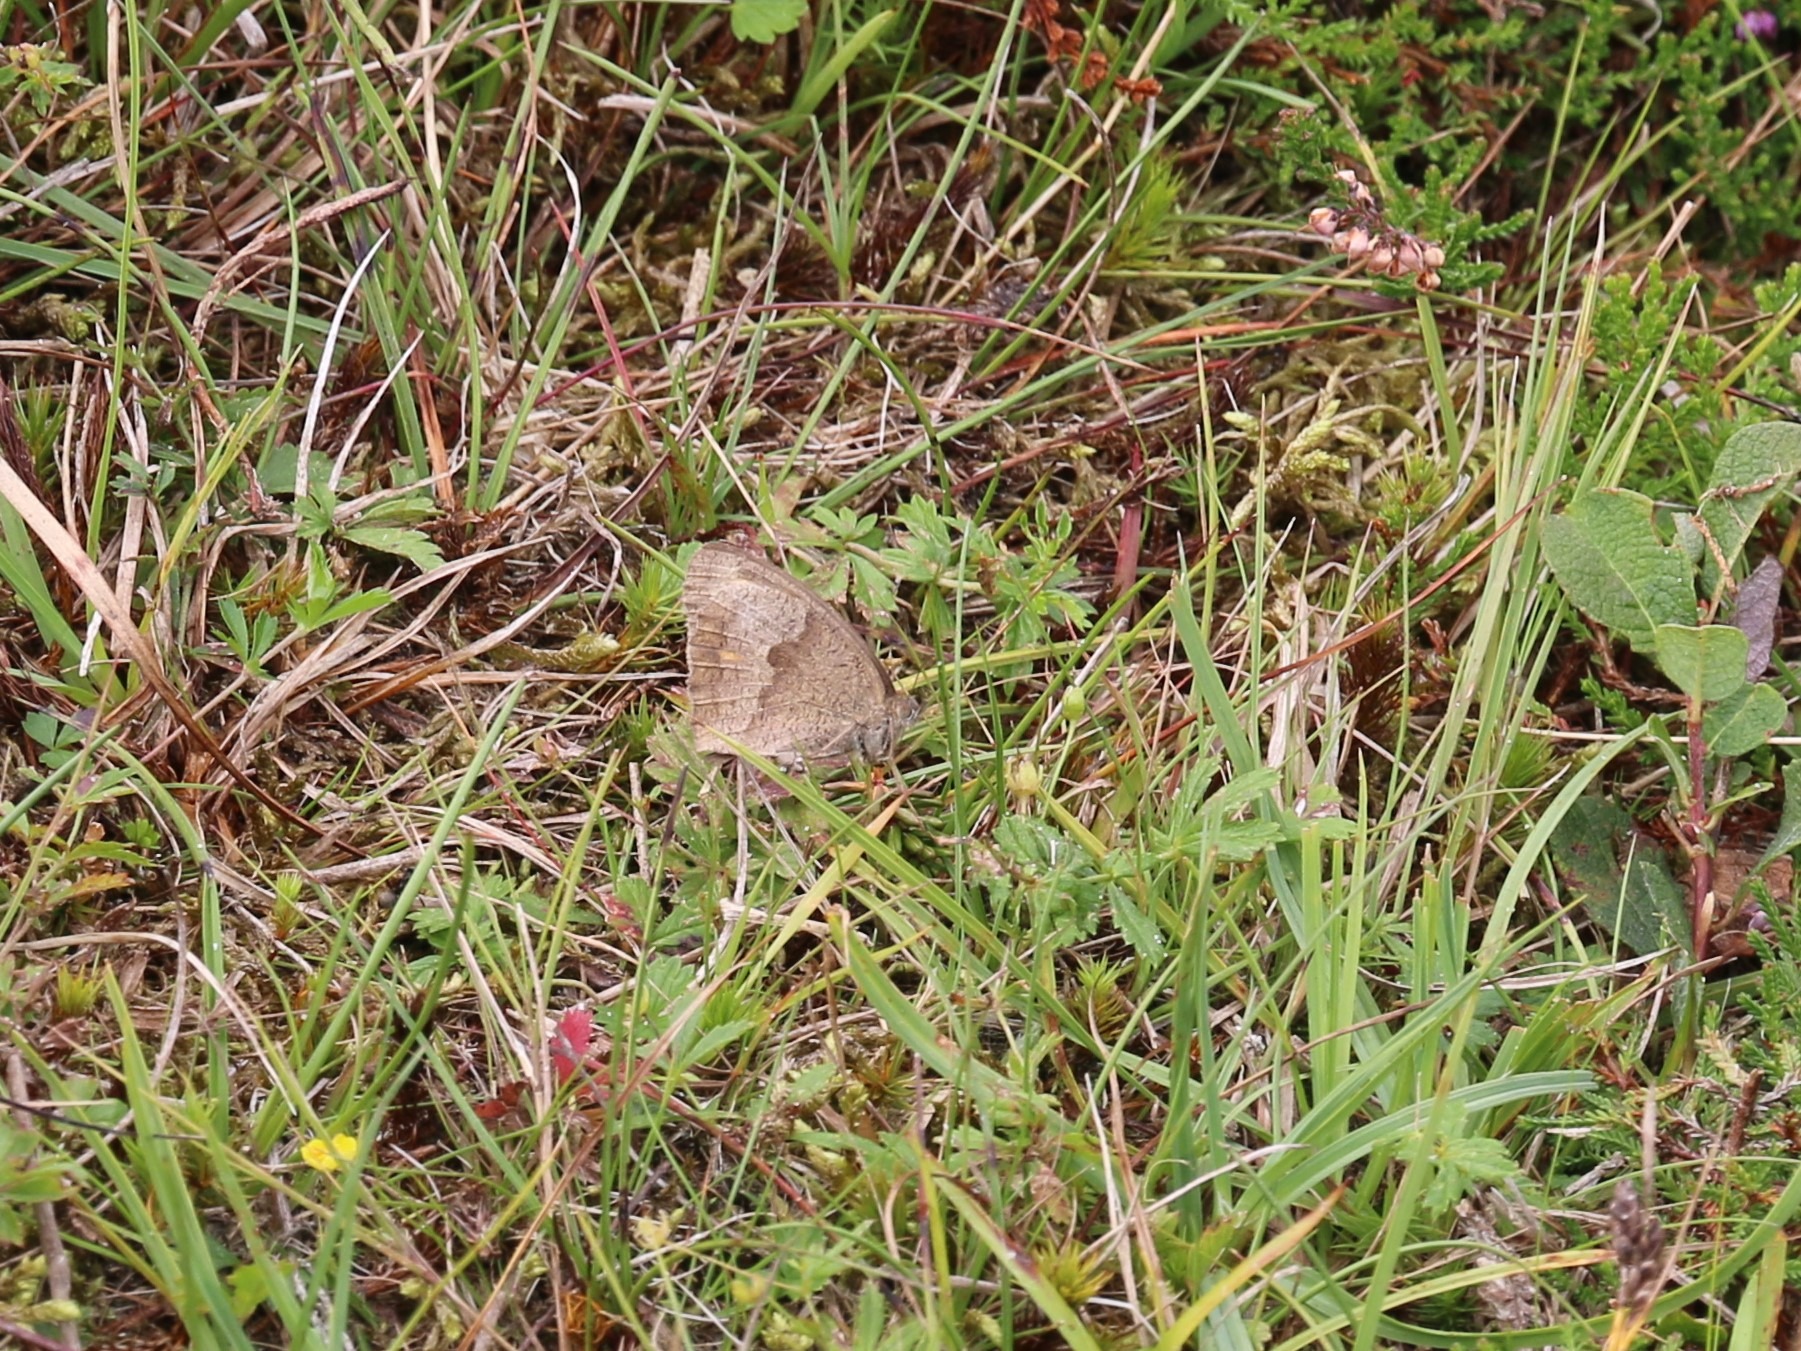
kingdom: Animalia
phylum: Arthropoda
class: Insecta
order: Lepidoptera
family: Nymphalidae
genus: Maniola
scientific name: Maniola jurtina
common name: Græsrandøje
